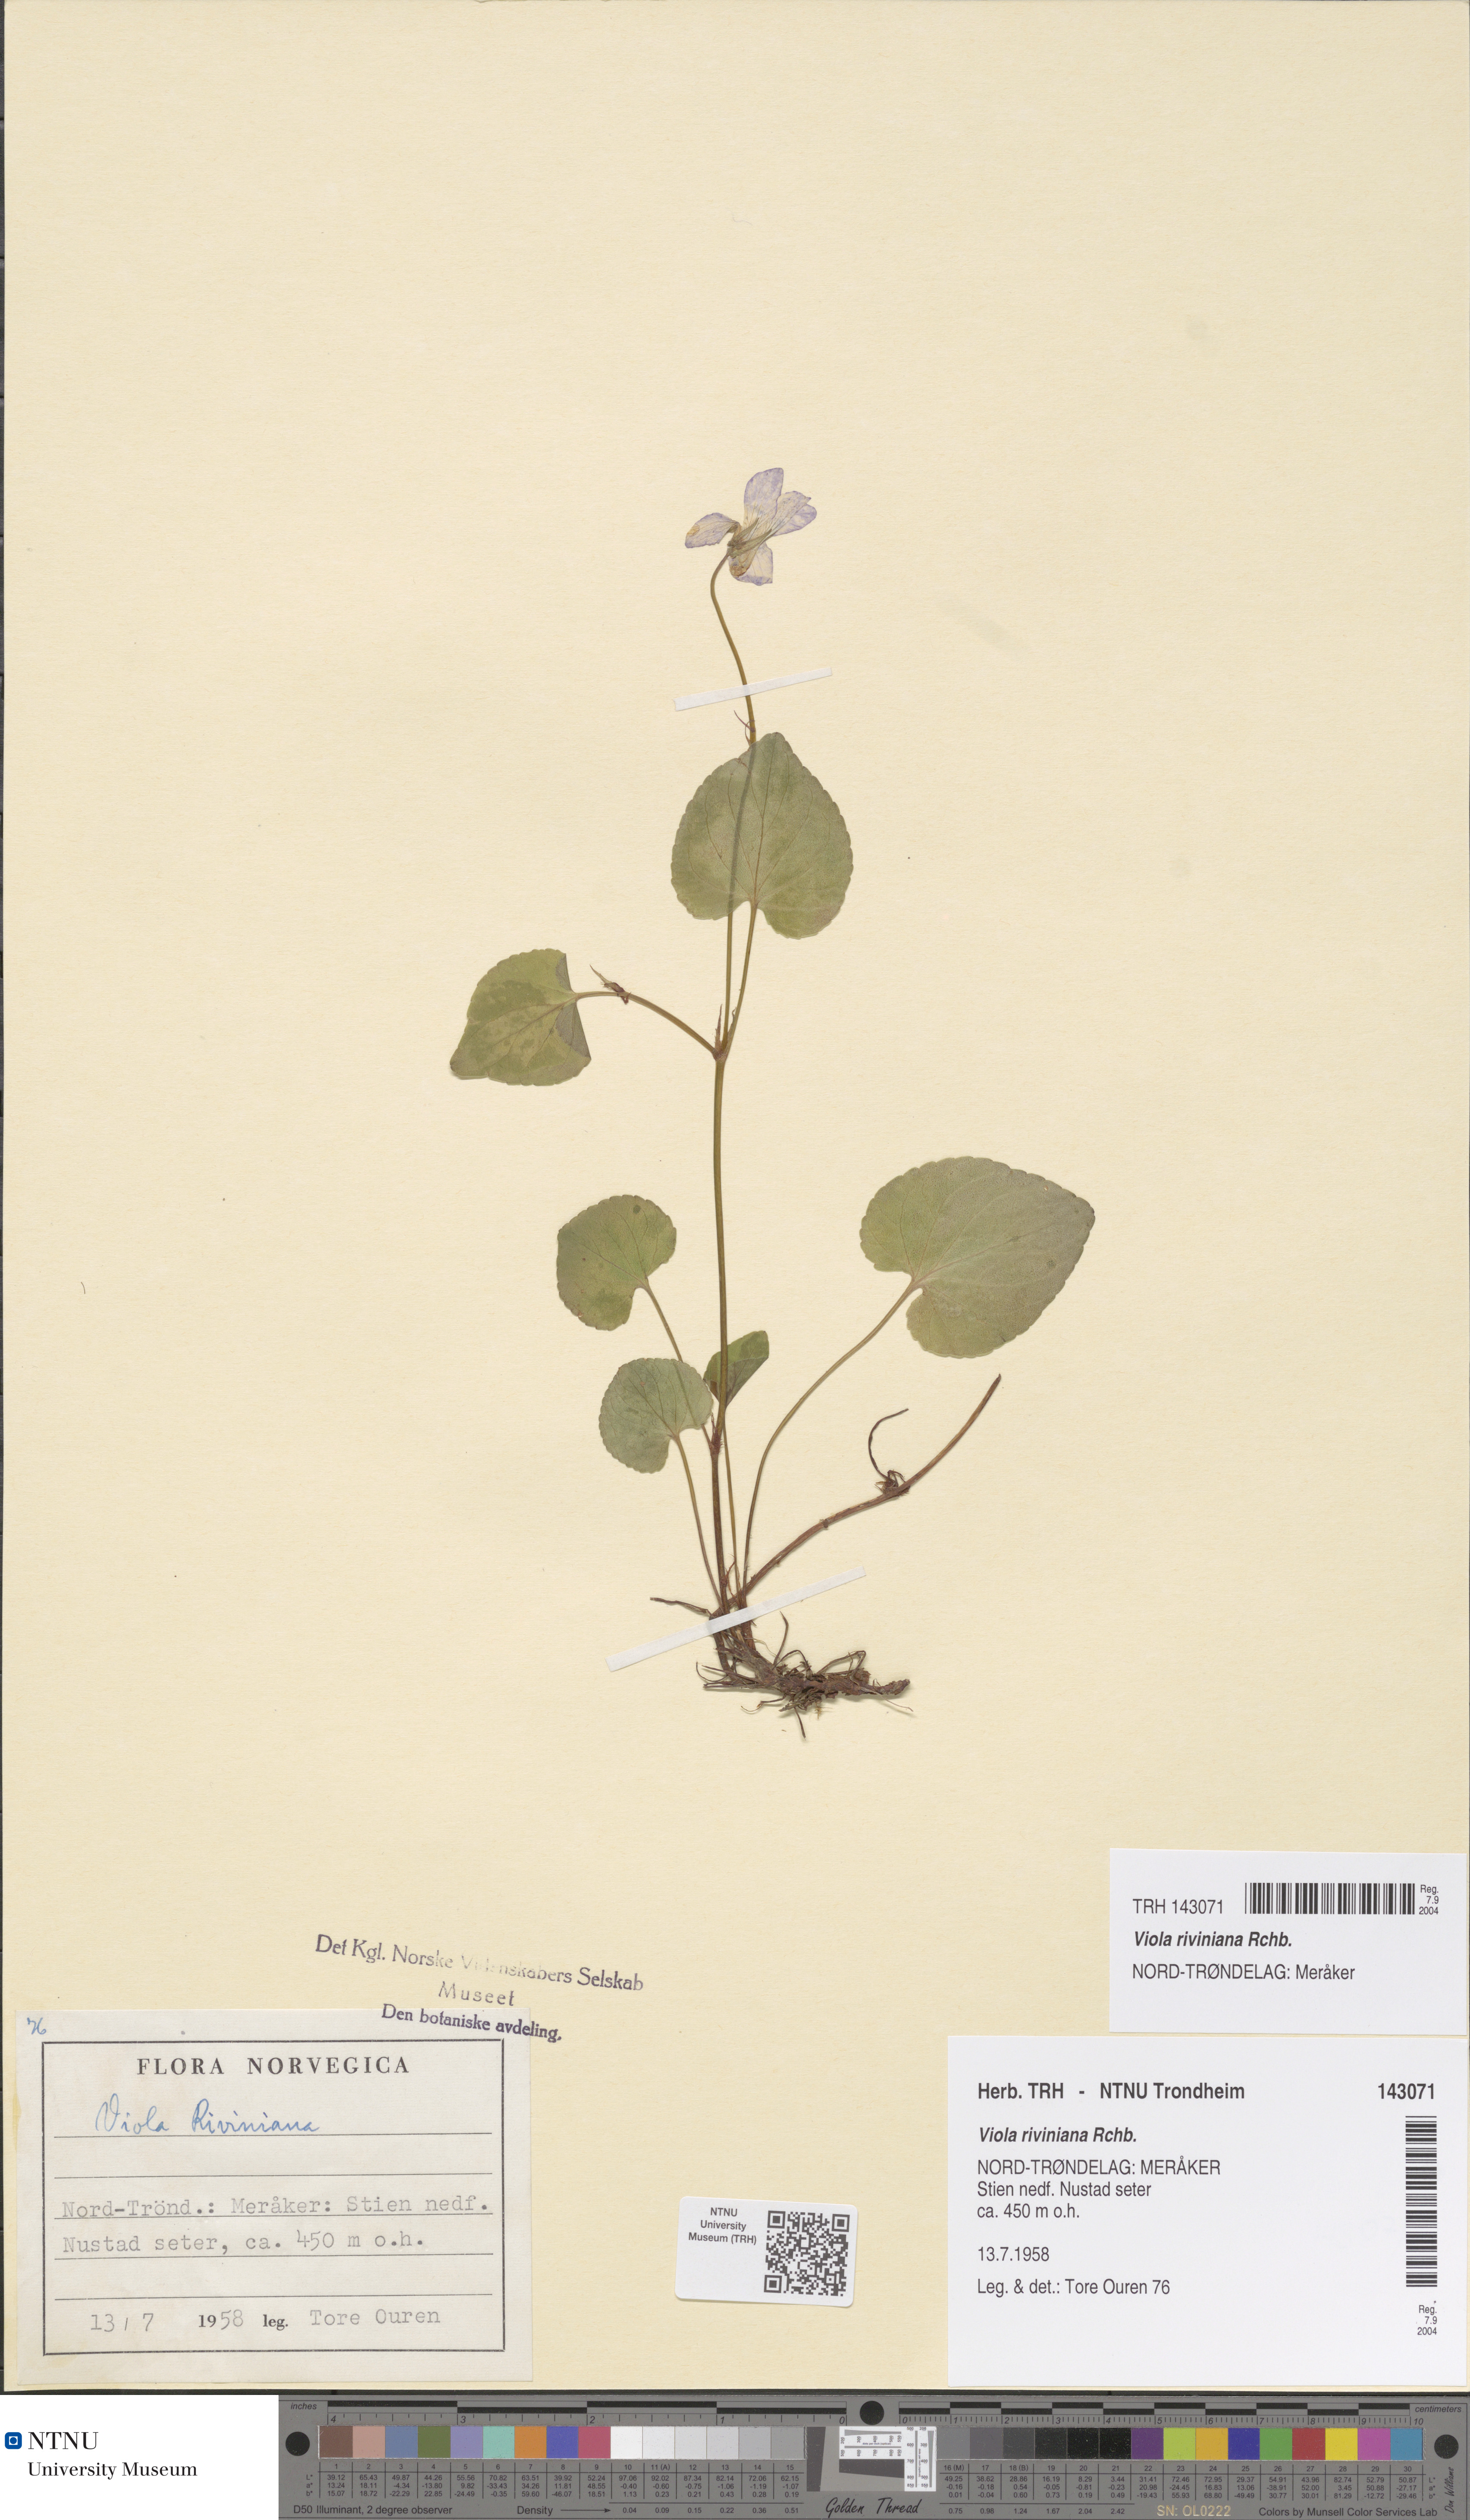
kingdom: Plantae
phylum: Tracheophyta
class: Magnoliopsida
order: Malpighiales
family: Violaceae
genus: Viola
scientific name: Viola riviniana
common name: Common dog-violet
